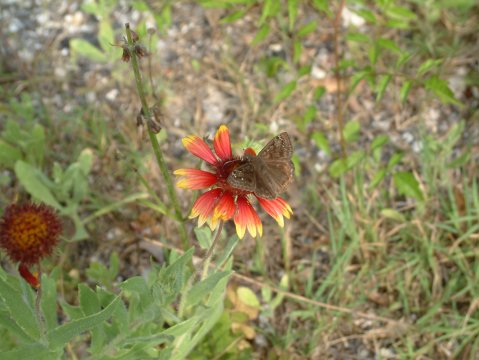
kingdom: Animalia
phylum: Arthropoda
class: Insecta
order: Lepidoptera
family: Hesperiidae
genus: Gesta
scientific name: Gesta
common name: Horace's Duskywing
